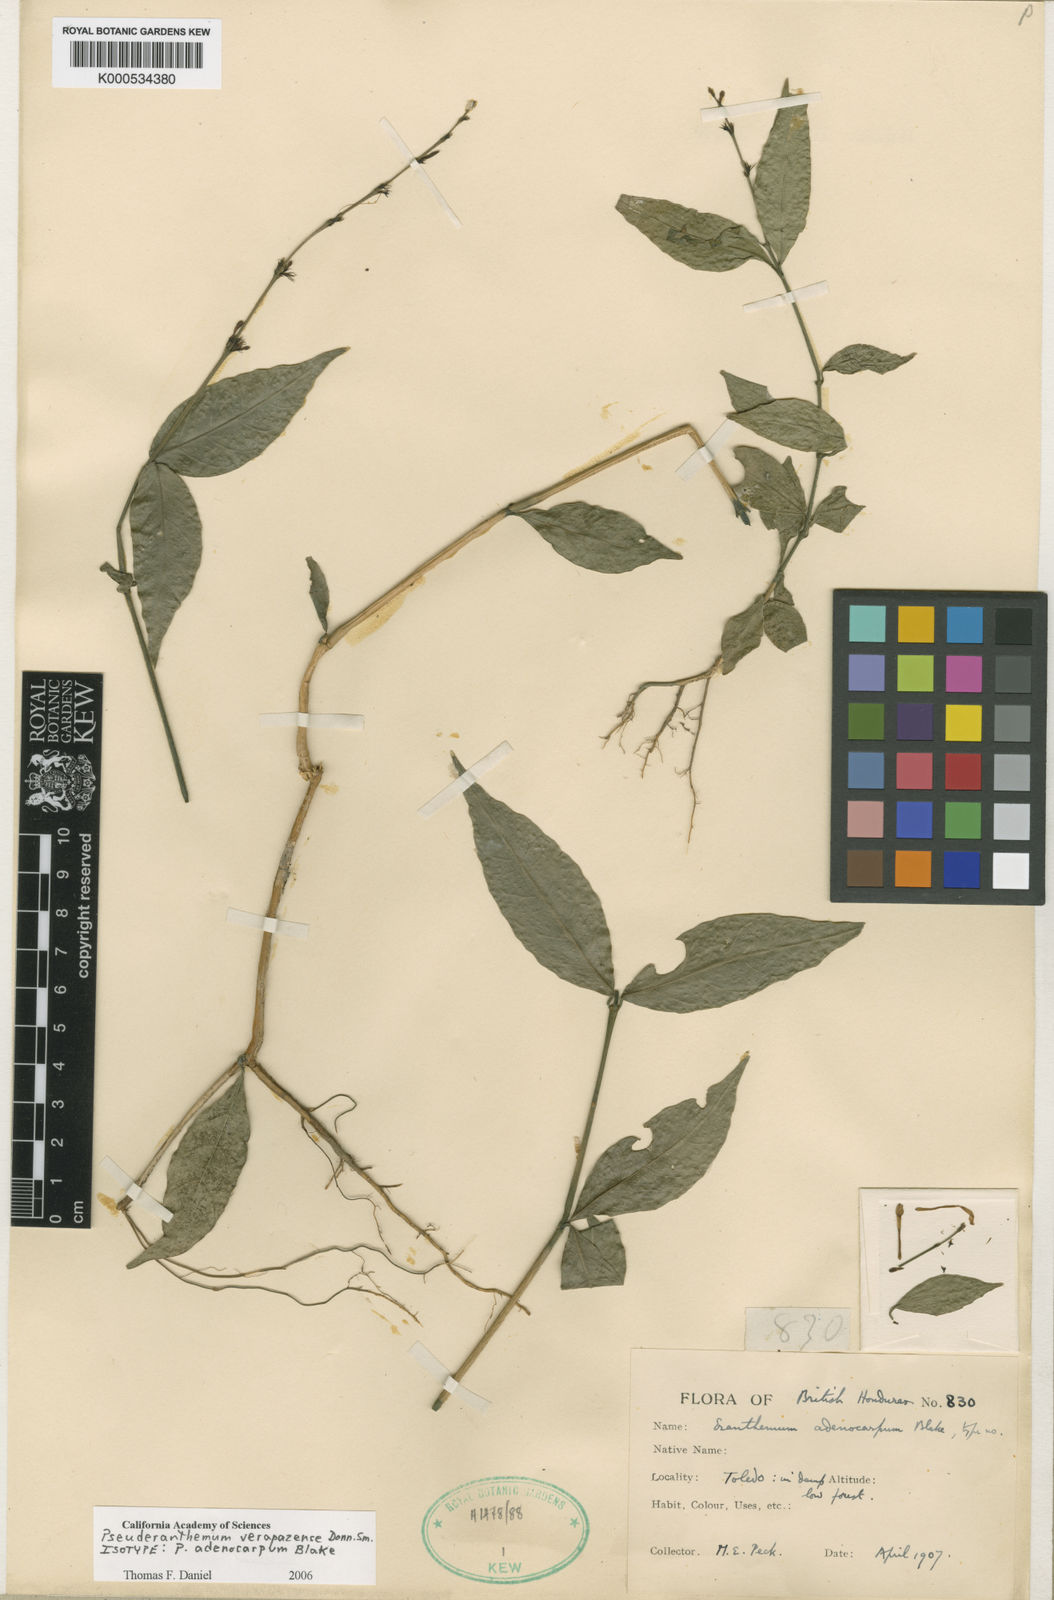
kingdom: Plantae
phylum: Tracheophyta
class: Magnoliopsida
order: Lamiales
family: Acanthaceae
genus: Pseuderanthemum
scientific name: Pseuderanthemum verapazense
